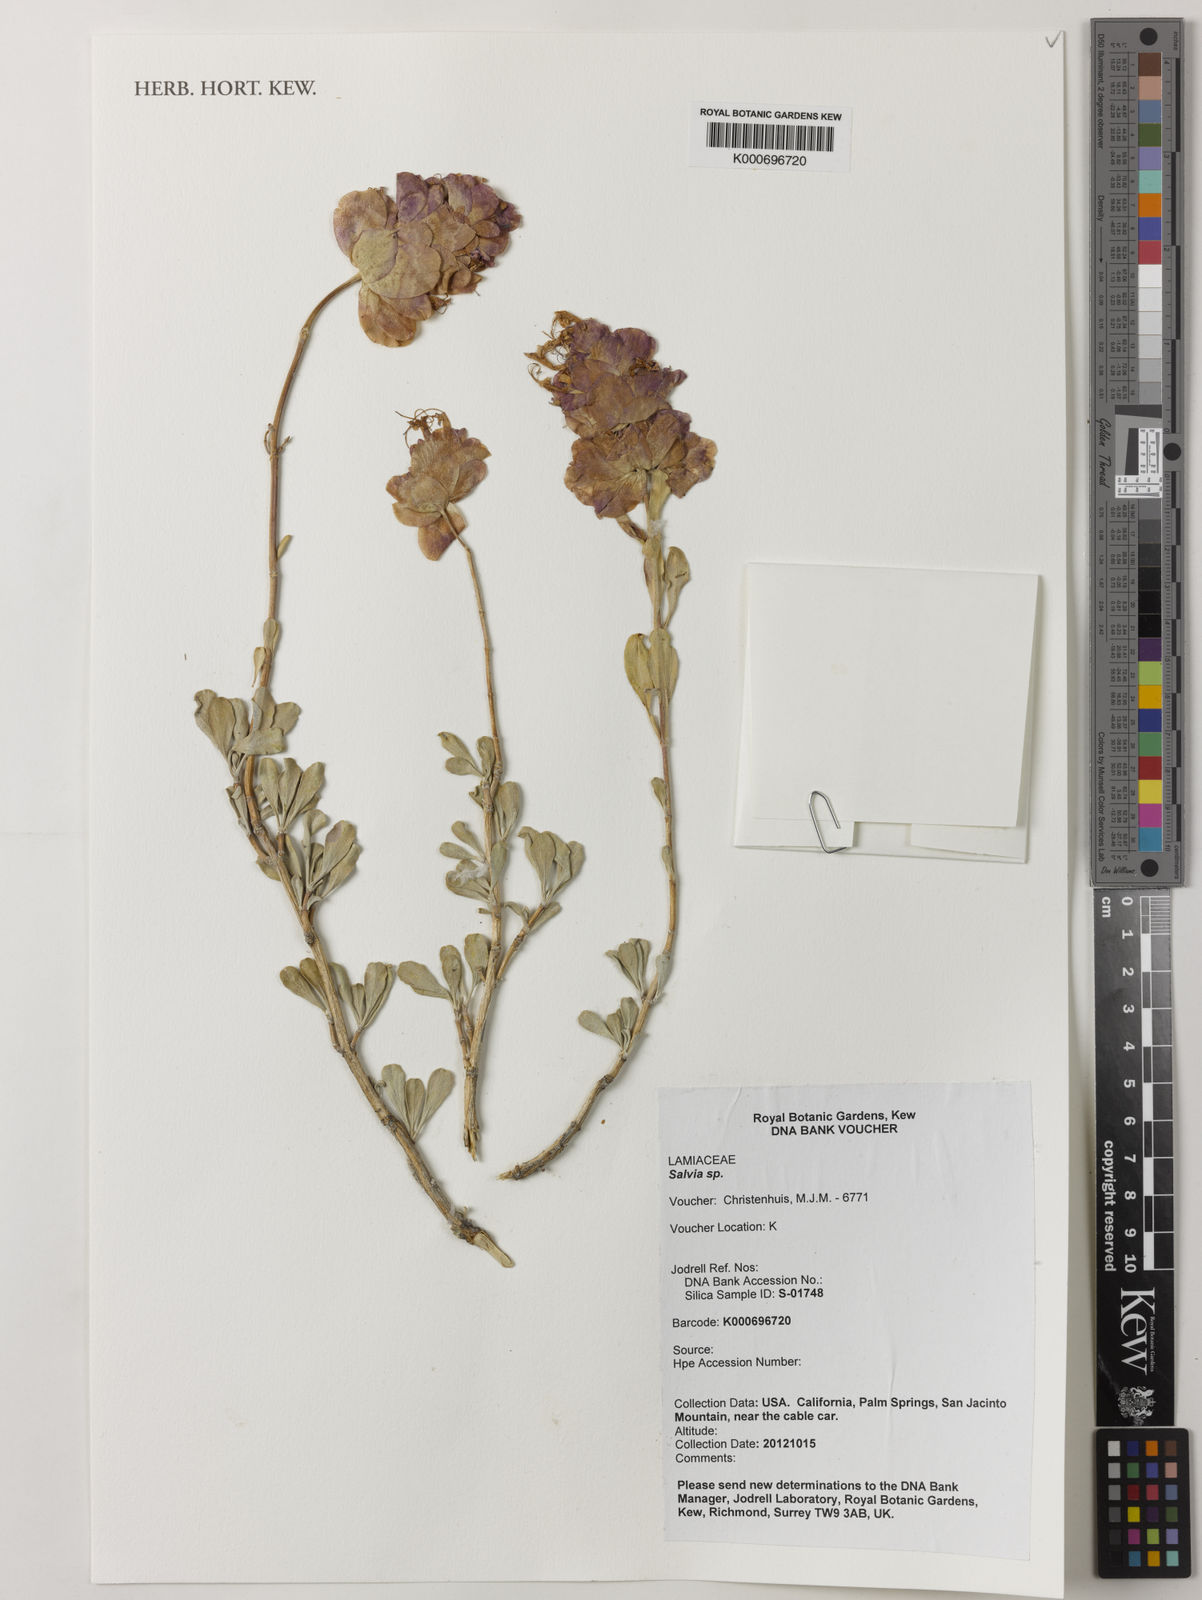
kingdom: Plantae
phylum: Tracheophyta
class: Magnoliopsida
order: Lamiales
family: Lamiaceae
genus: Salvia
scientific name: Salvia
